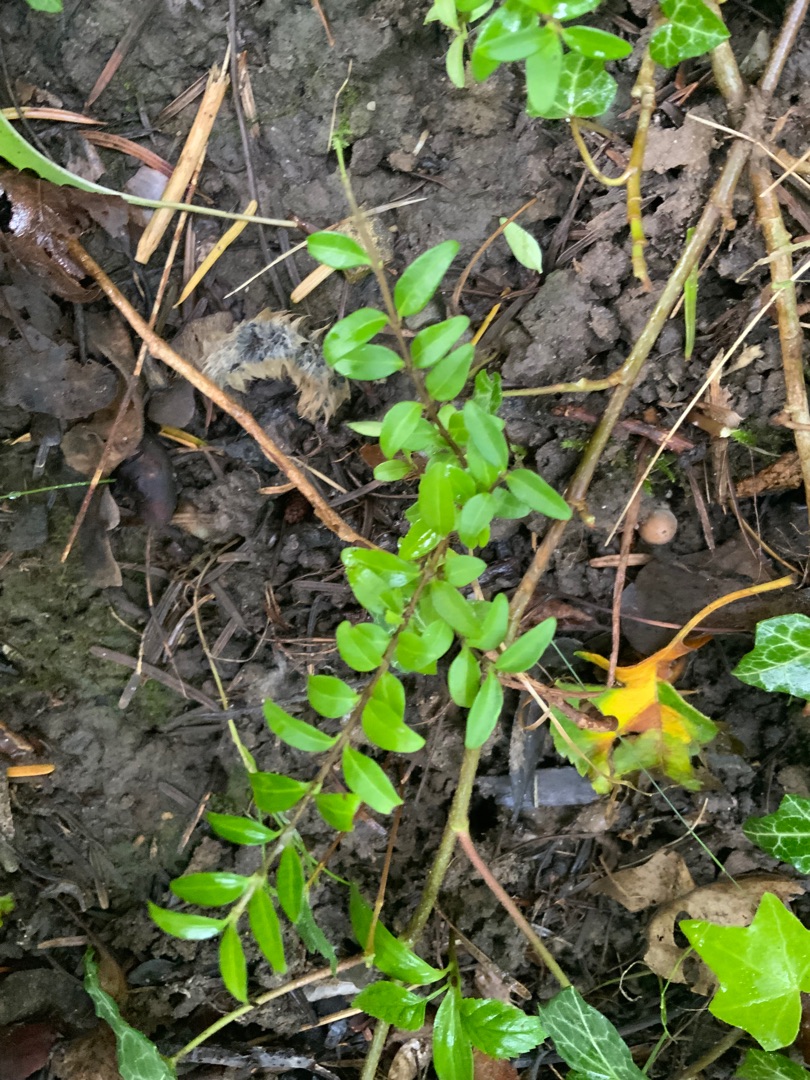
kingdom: Plantae
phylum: Tracheophyta
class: Magnoliopsida
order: Dipsacales
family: Caprifoliaceae
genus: Lonicera
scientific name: Lonicera pileata
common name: Liguster-gedeblad
